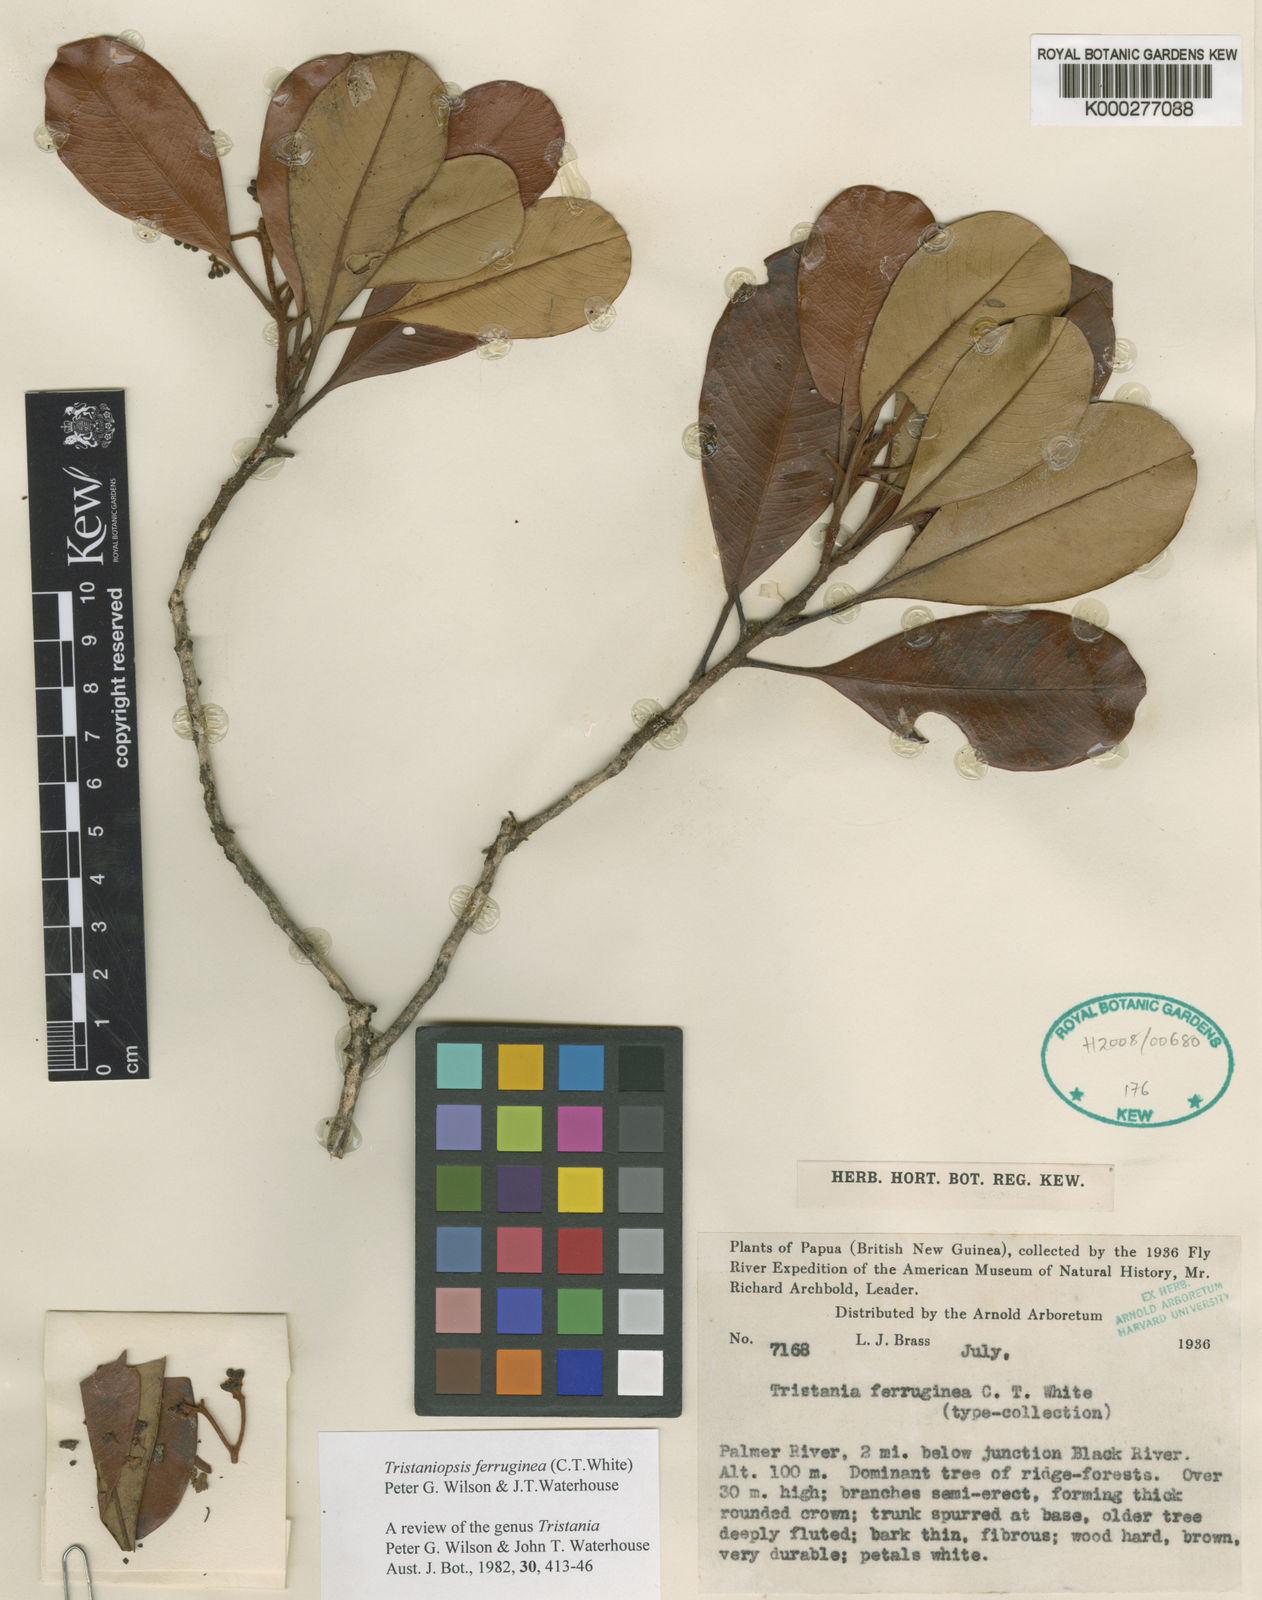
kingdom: Plantae
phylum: Tracheophyta
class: Magnoliopsida
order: Myrtales
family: Myrtaceae
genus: Tristaniopsis
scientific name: Tristaniopsis ferruginea
